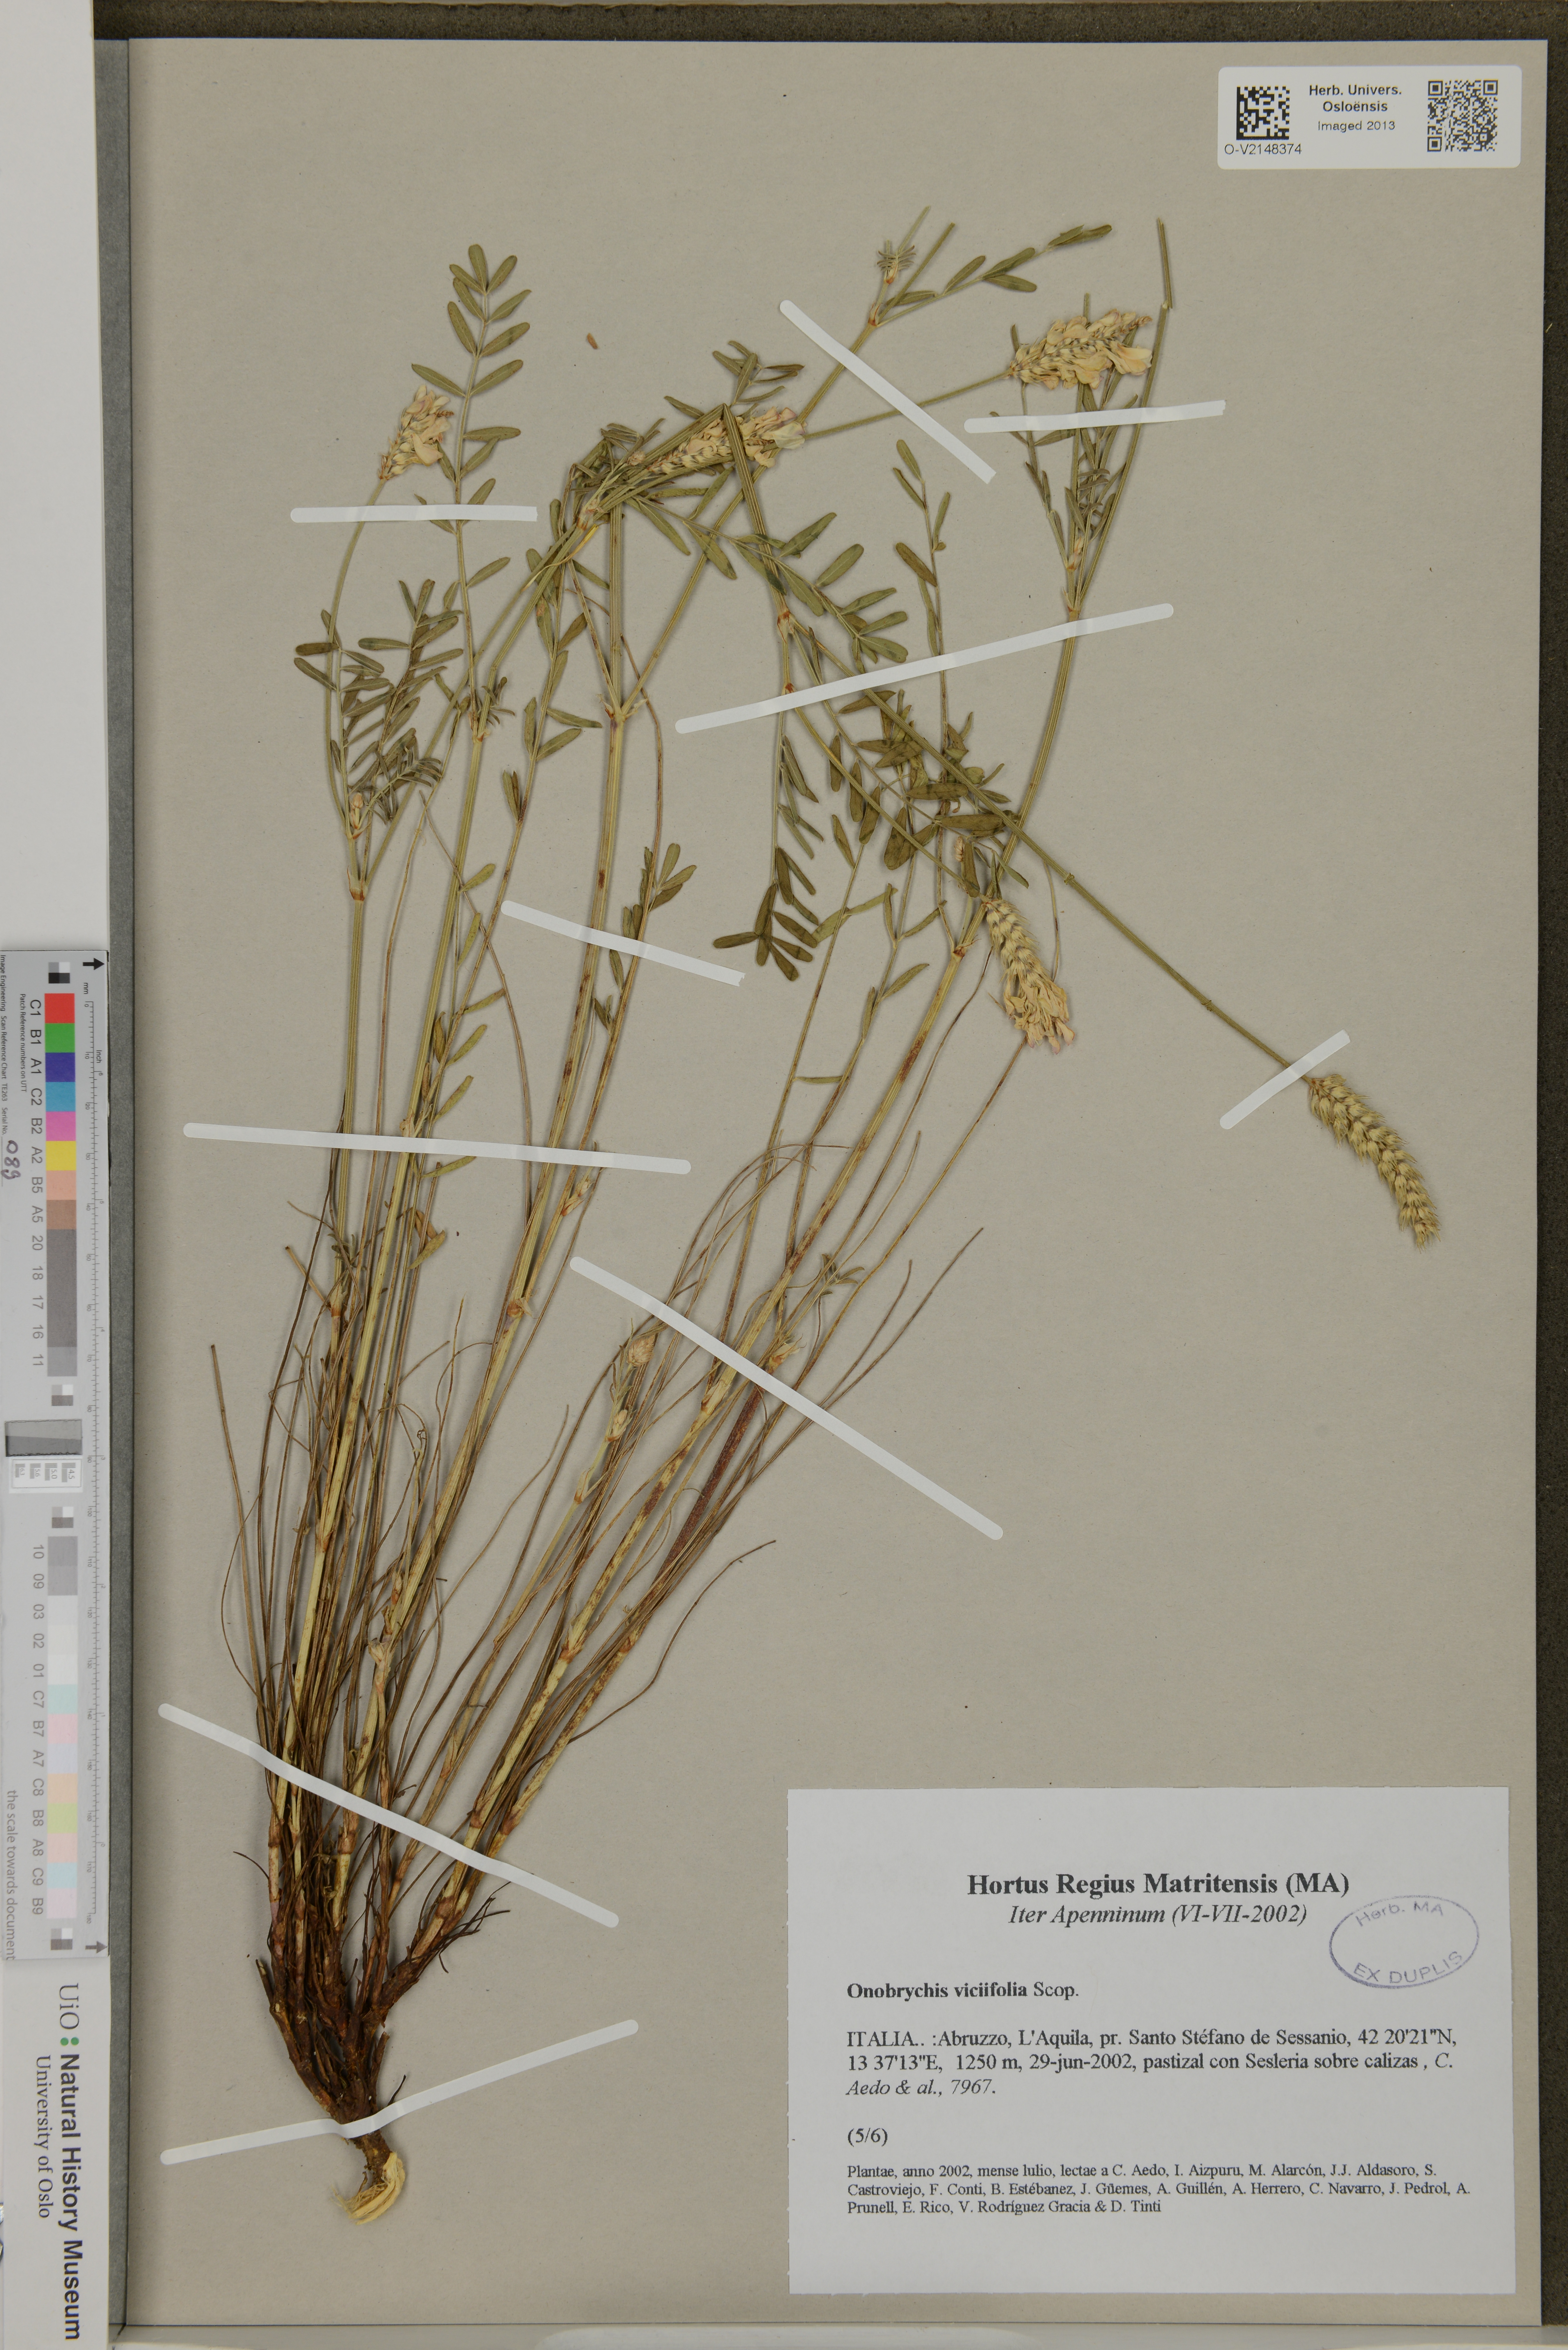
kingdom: Plantae
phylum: Tracheophyta
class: Magnoliopsida
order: Fabales
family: Fabaceae
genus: Onobrychis
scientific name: Onobrychis viciifolia
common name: Sainfoin
